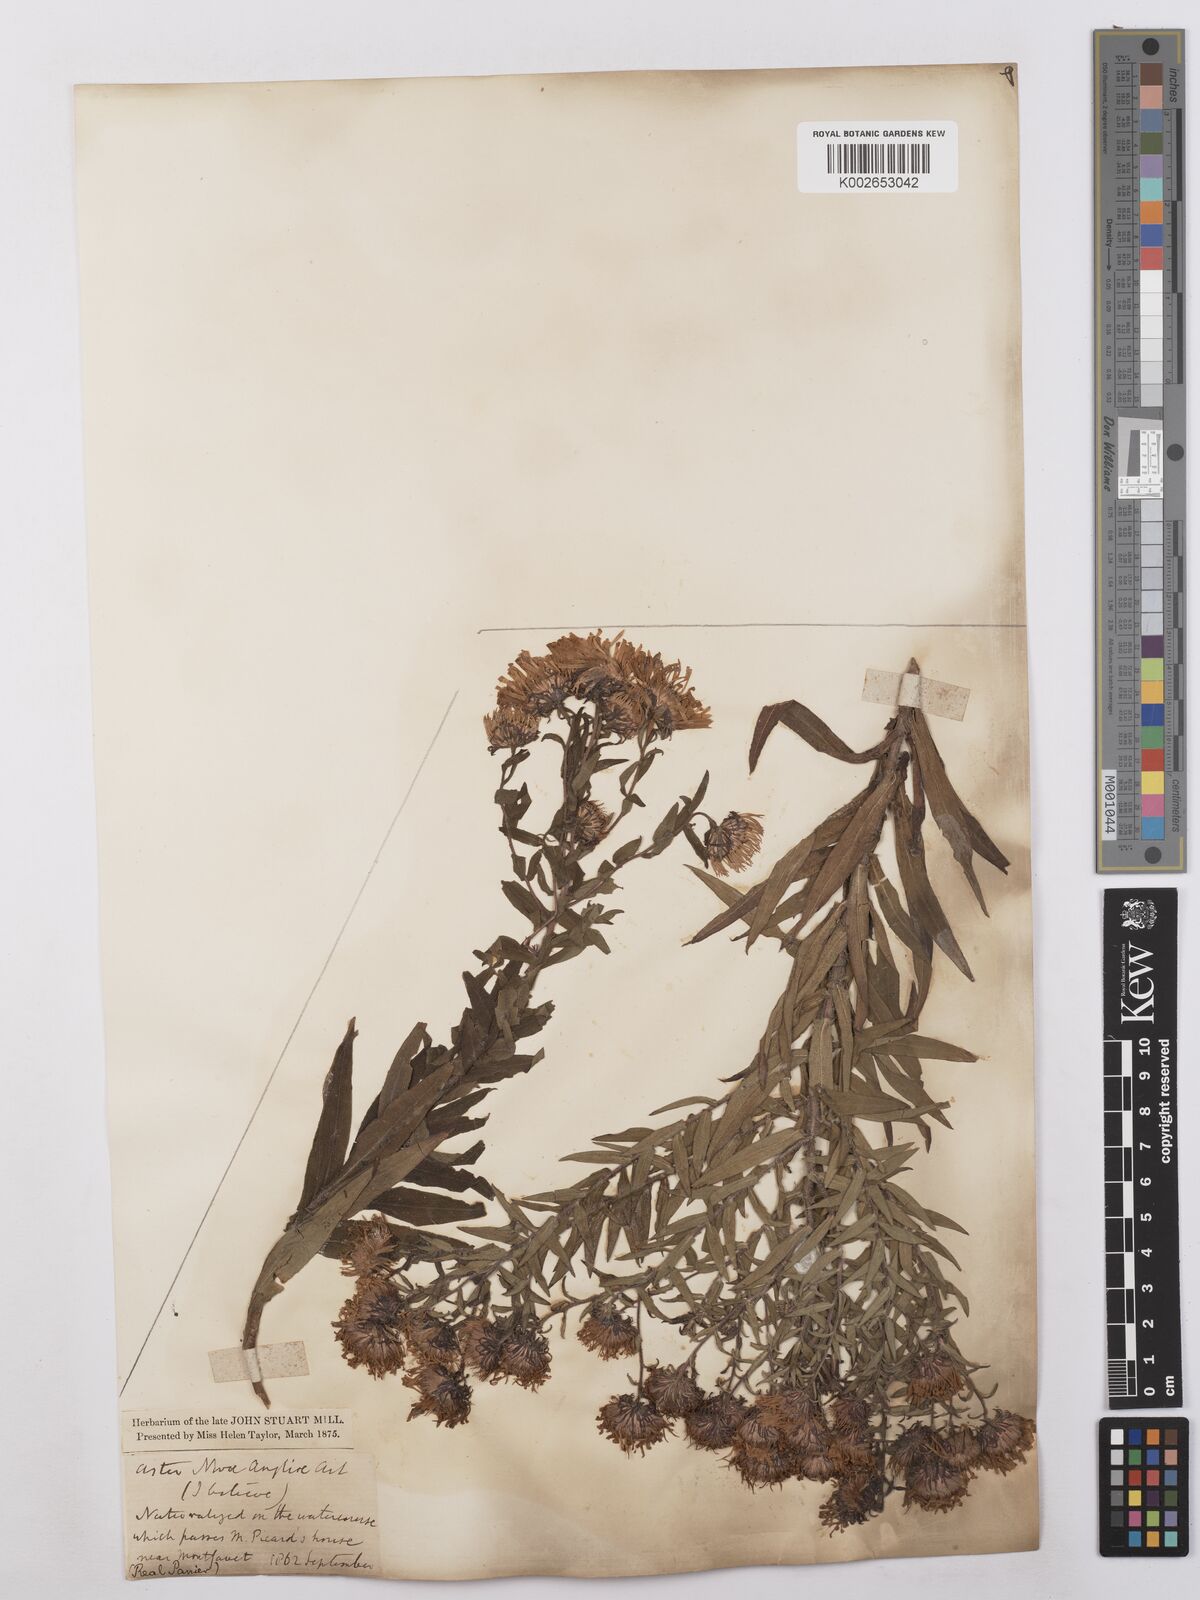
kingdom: Plantae
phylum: Tracheophyta
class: Magnoliopsida
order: Asterales
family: Asteraceae
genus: Symphyotrichum
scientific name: Symphyotrichum novae-angliae
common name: Michaelmas daisy
